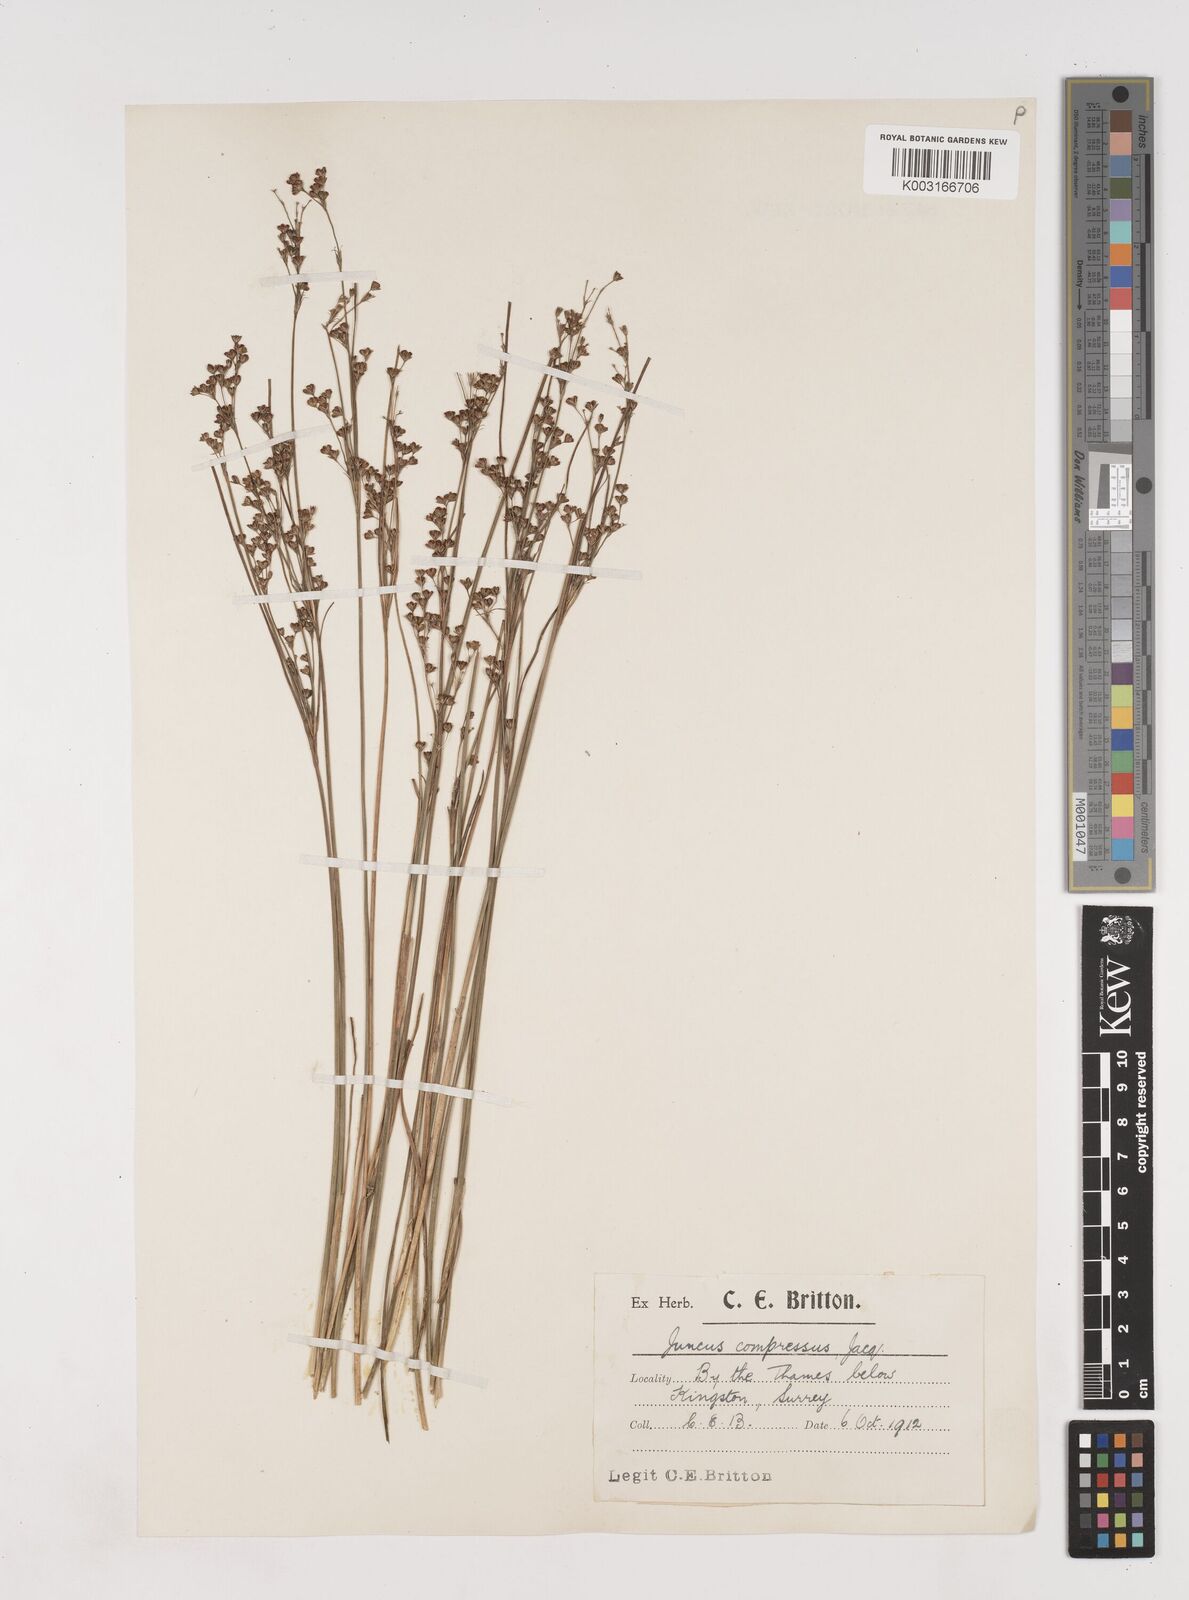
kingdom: Plantae
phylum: Tracheophyta
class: Liliopsida
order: Poales
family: Juncaceae
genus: Juncus
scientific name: Juncus compressus
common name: Round-fruited rush
